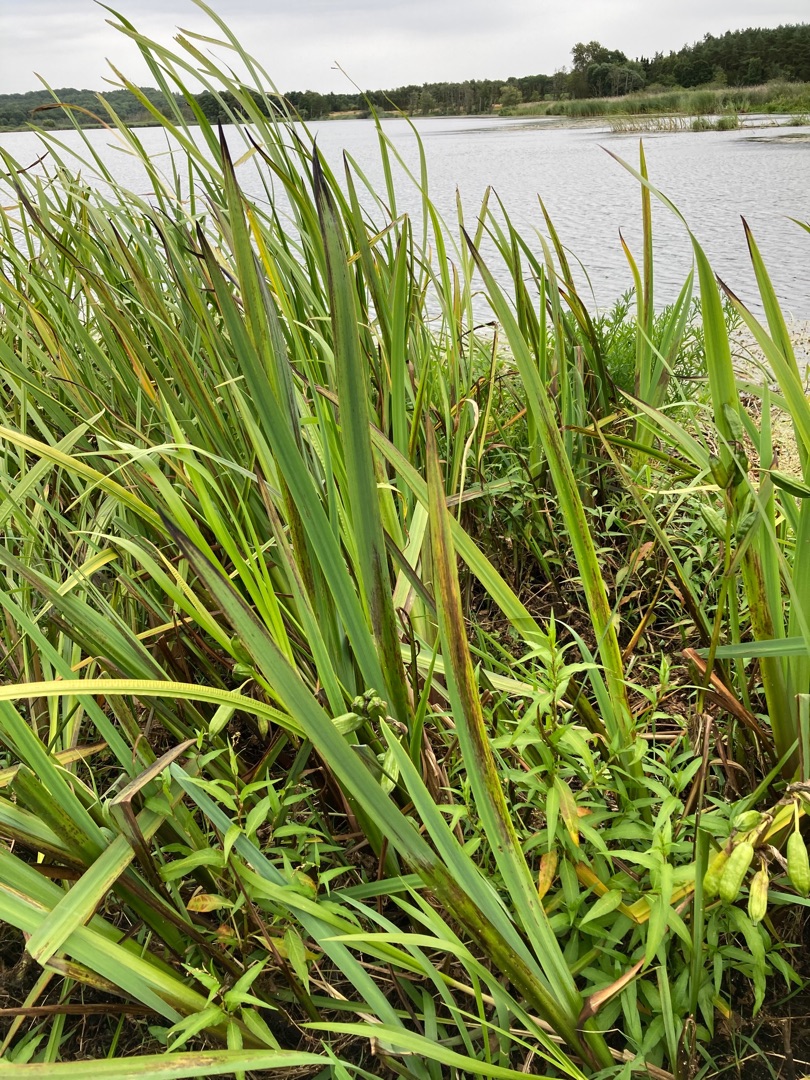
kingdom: Plantae
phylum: Tracheophyta
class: Liliopsida
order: Asparagales
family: Iridaceae
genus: Iris
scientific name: Iris pseudacorus
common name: Gul iris
